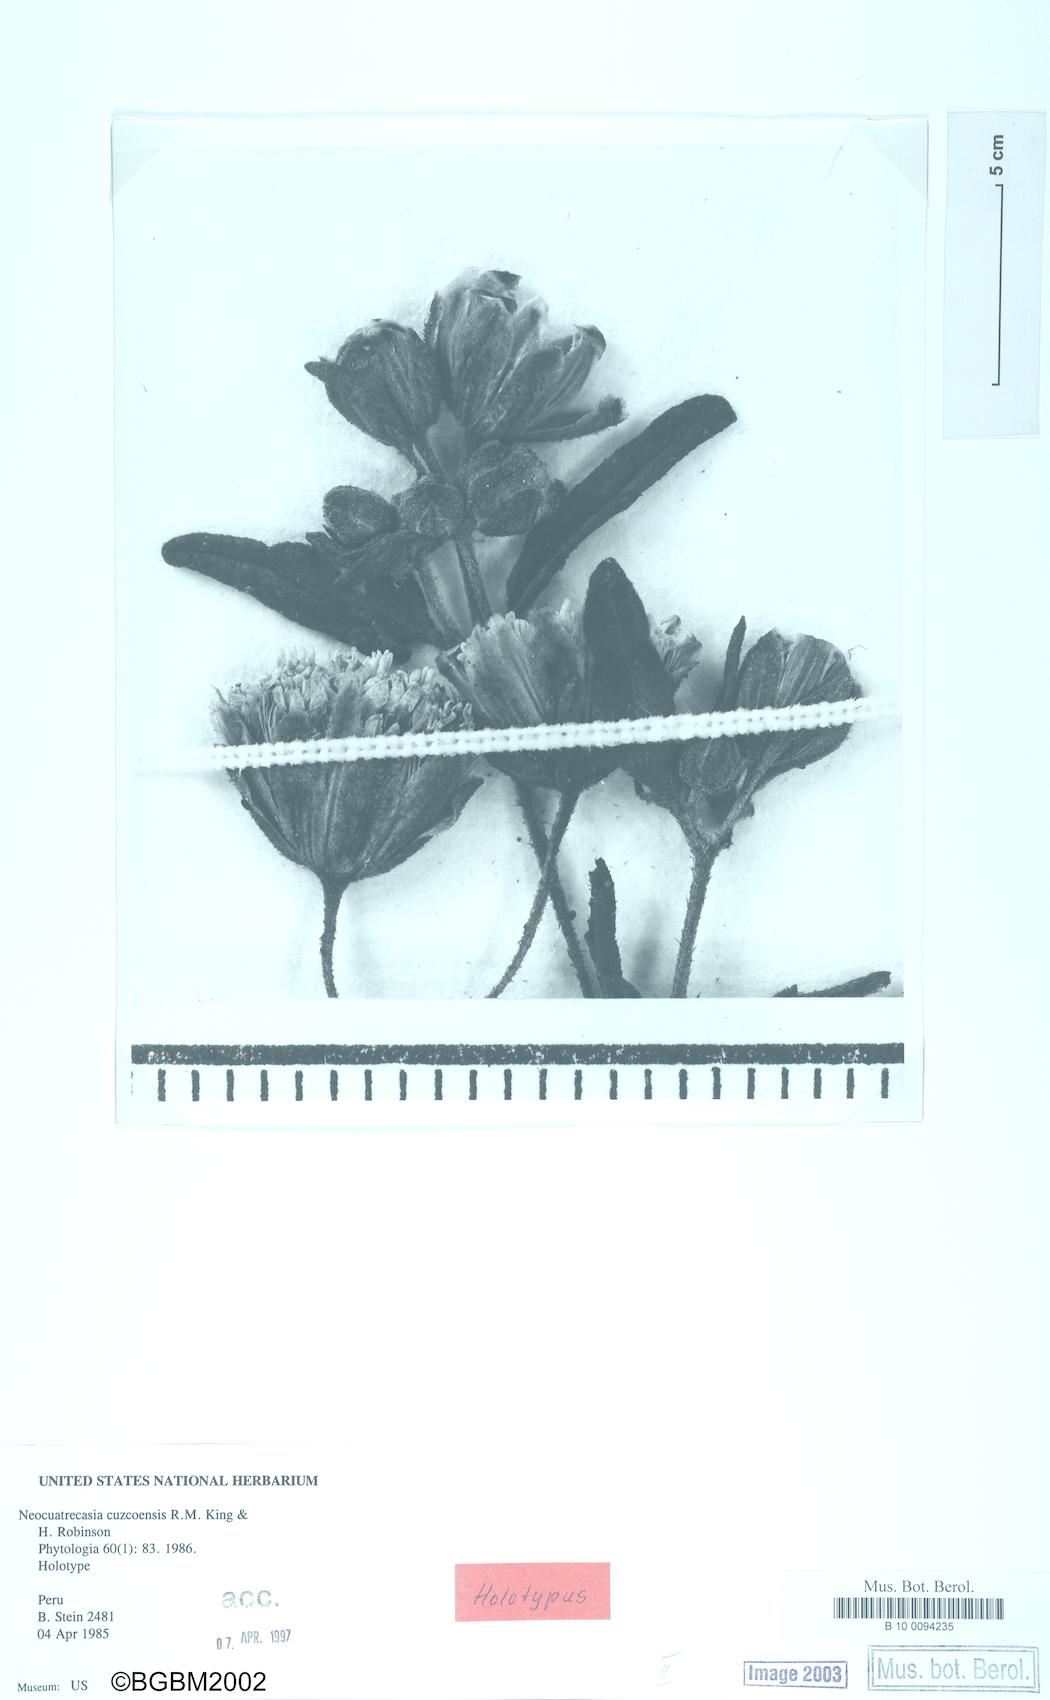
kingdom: Plantae
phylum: Tracheophyta
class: Magnoliopsida
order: Asterales
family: Asteraceae
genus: Neocuatrecasia
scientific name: Neocuatrecasia cuzcoensis
